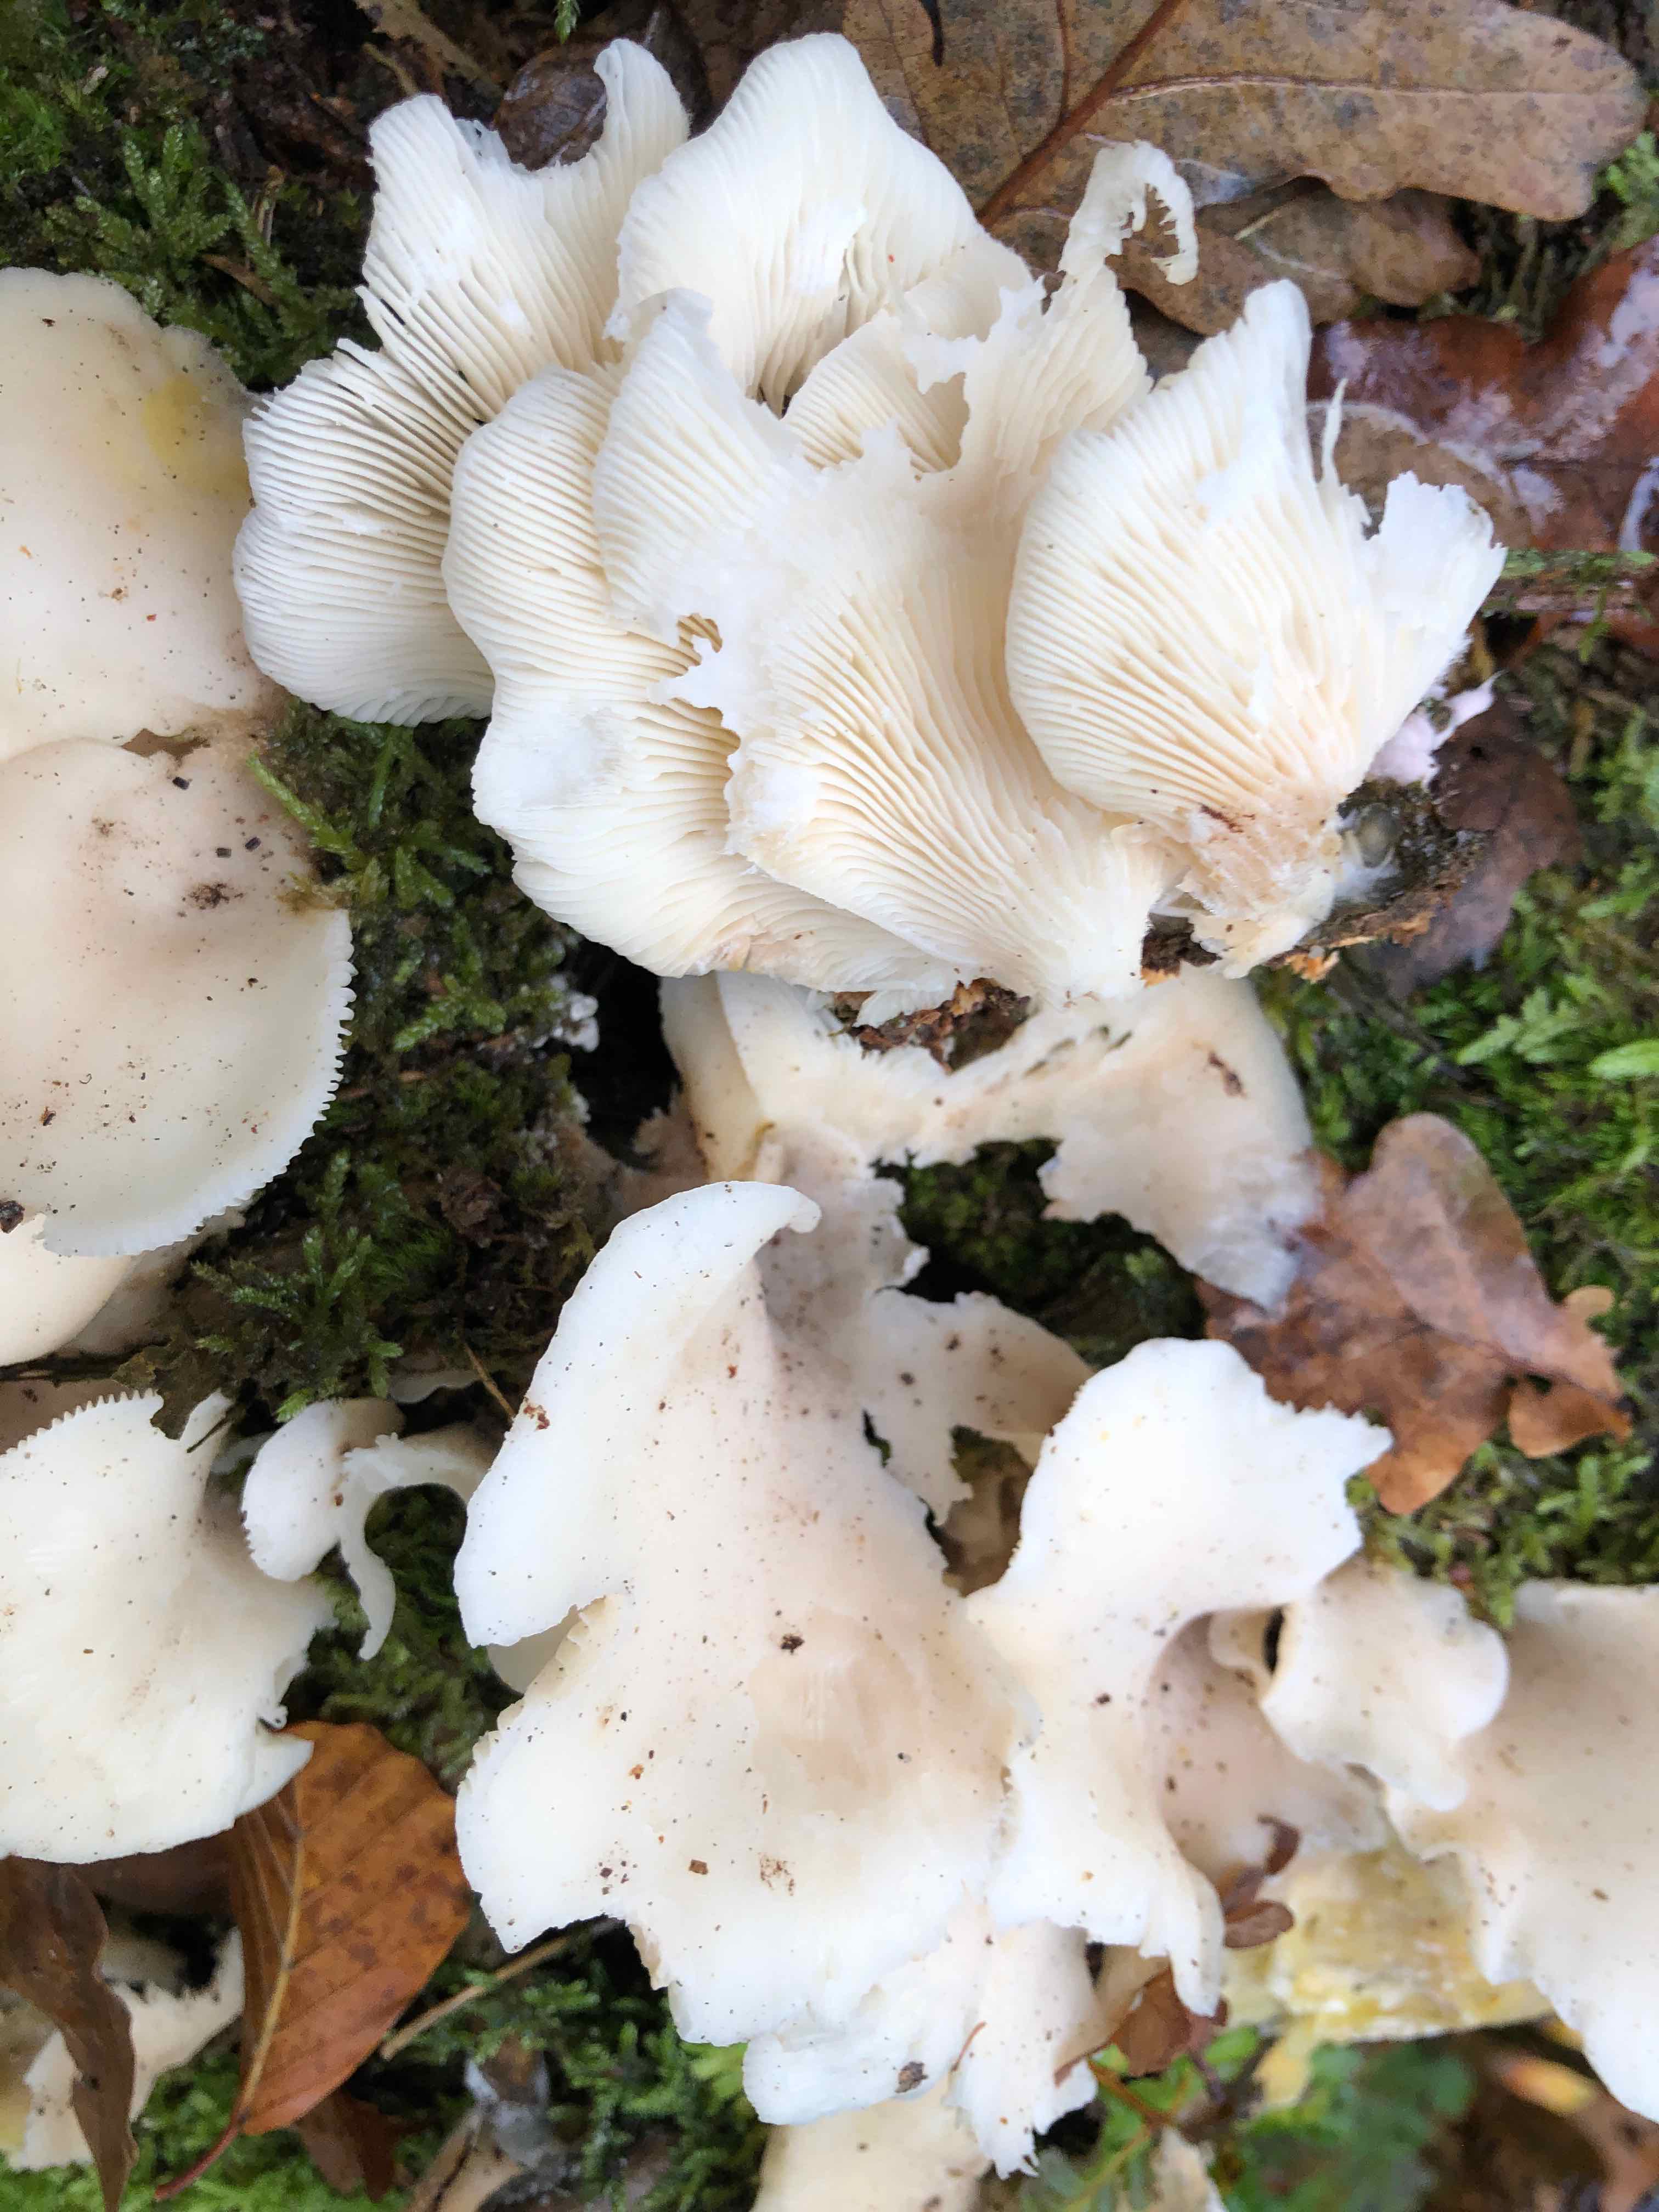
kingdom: Fungi
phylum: Basidiomycota
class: Agaricomycetes
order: Agaricales
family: Marasmiaceae
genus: Pleurocybella
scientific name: Pleurocybella porrigens
